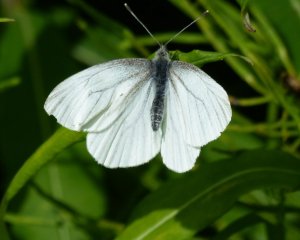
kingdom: Animalia
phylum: Arthropoda
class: Insecta
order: Lepidoptera
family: Pieridae
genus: Pieris
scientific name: Pieris oleracea
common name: Mustard White
